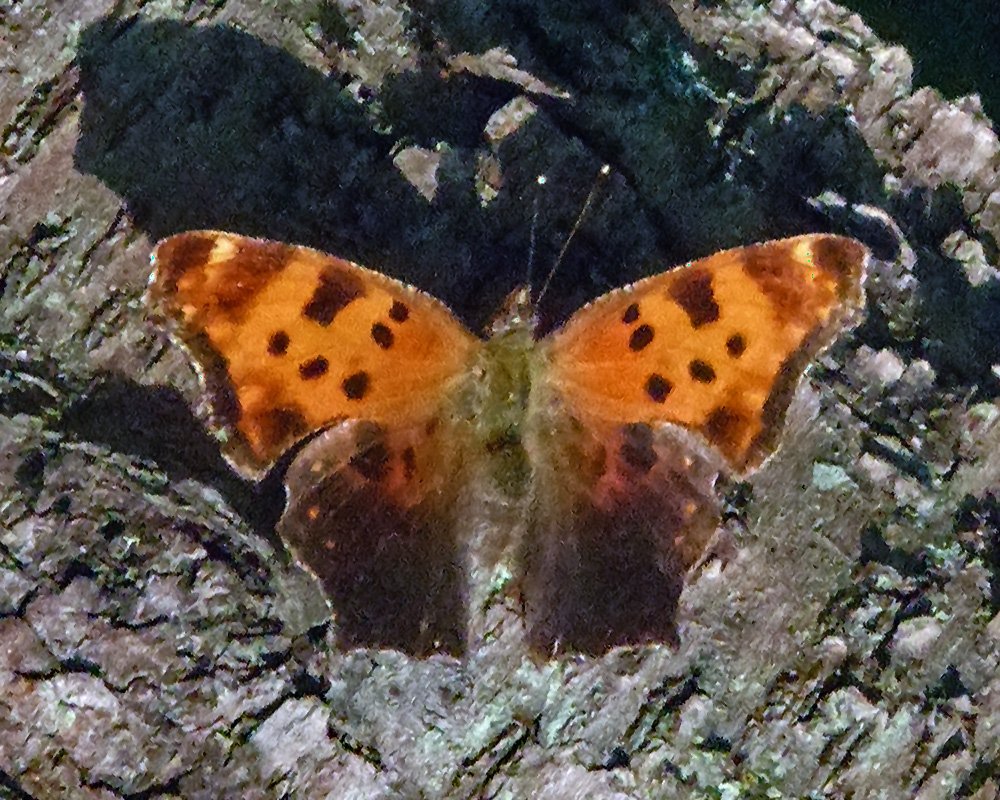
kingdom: Animalia
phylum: Arthropoda
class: Insecta
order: Lepidoptera
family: Nymphalidae
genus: Polygonia
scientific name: Polygonia comma
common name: Eastern Comma
